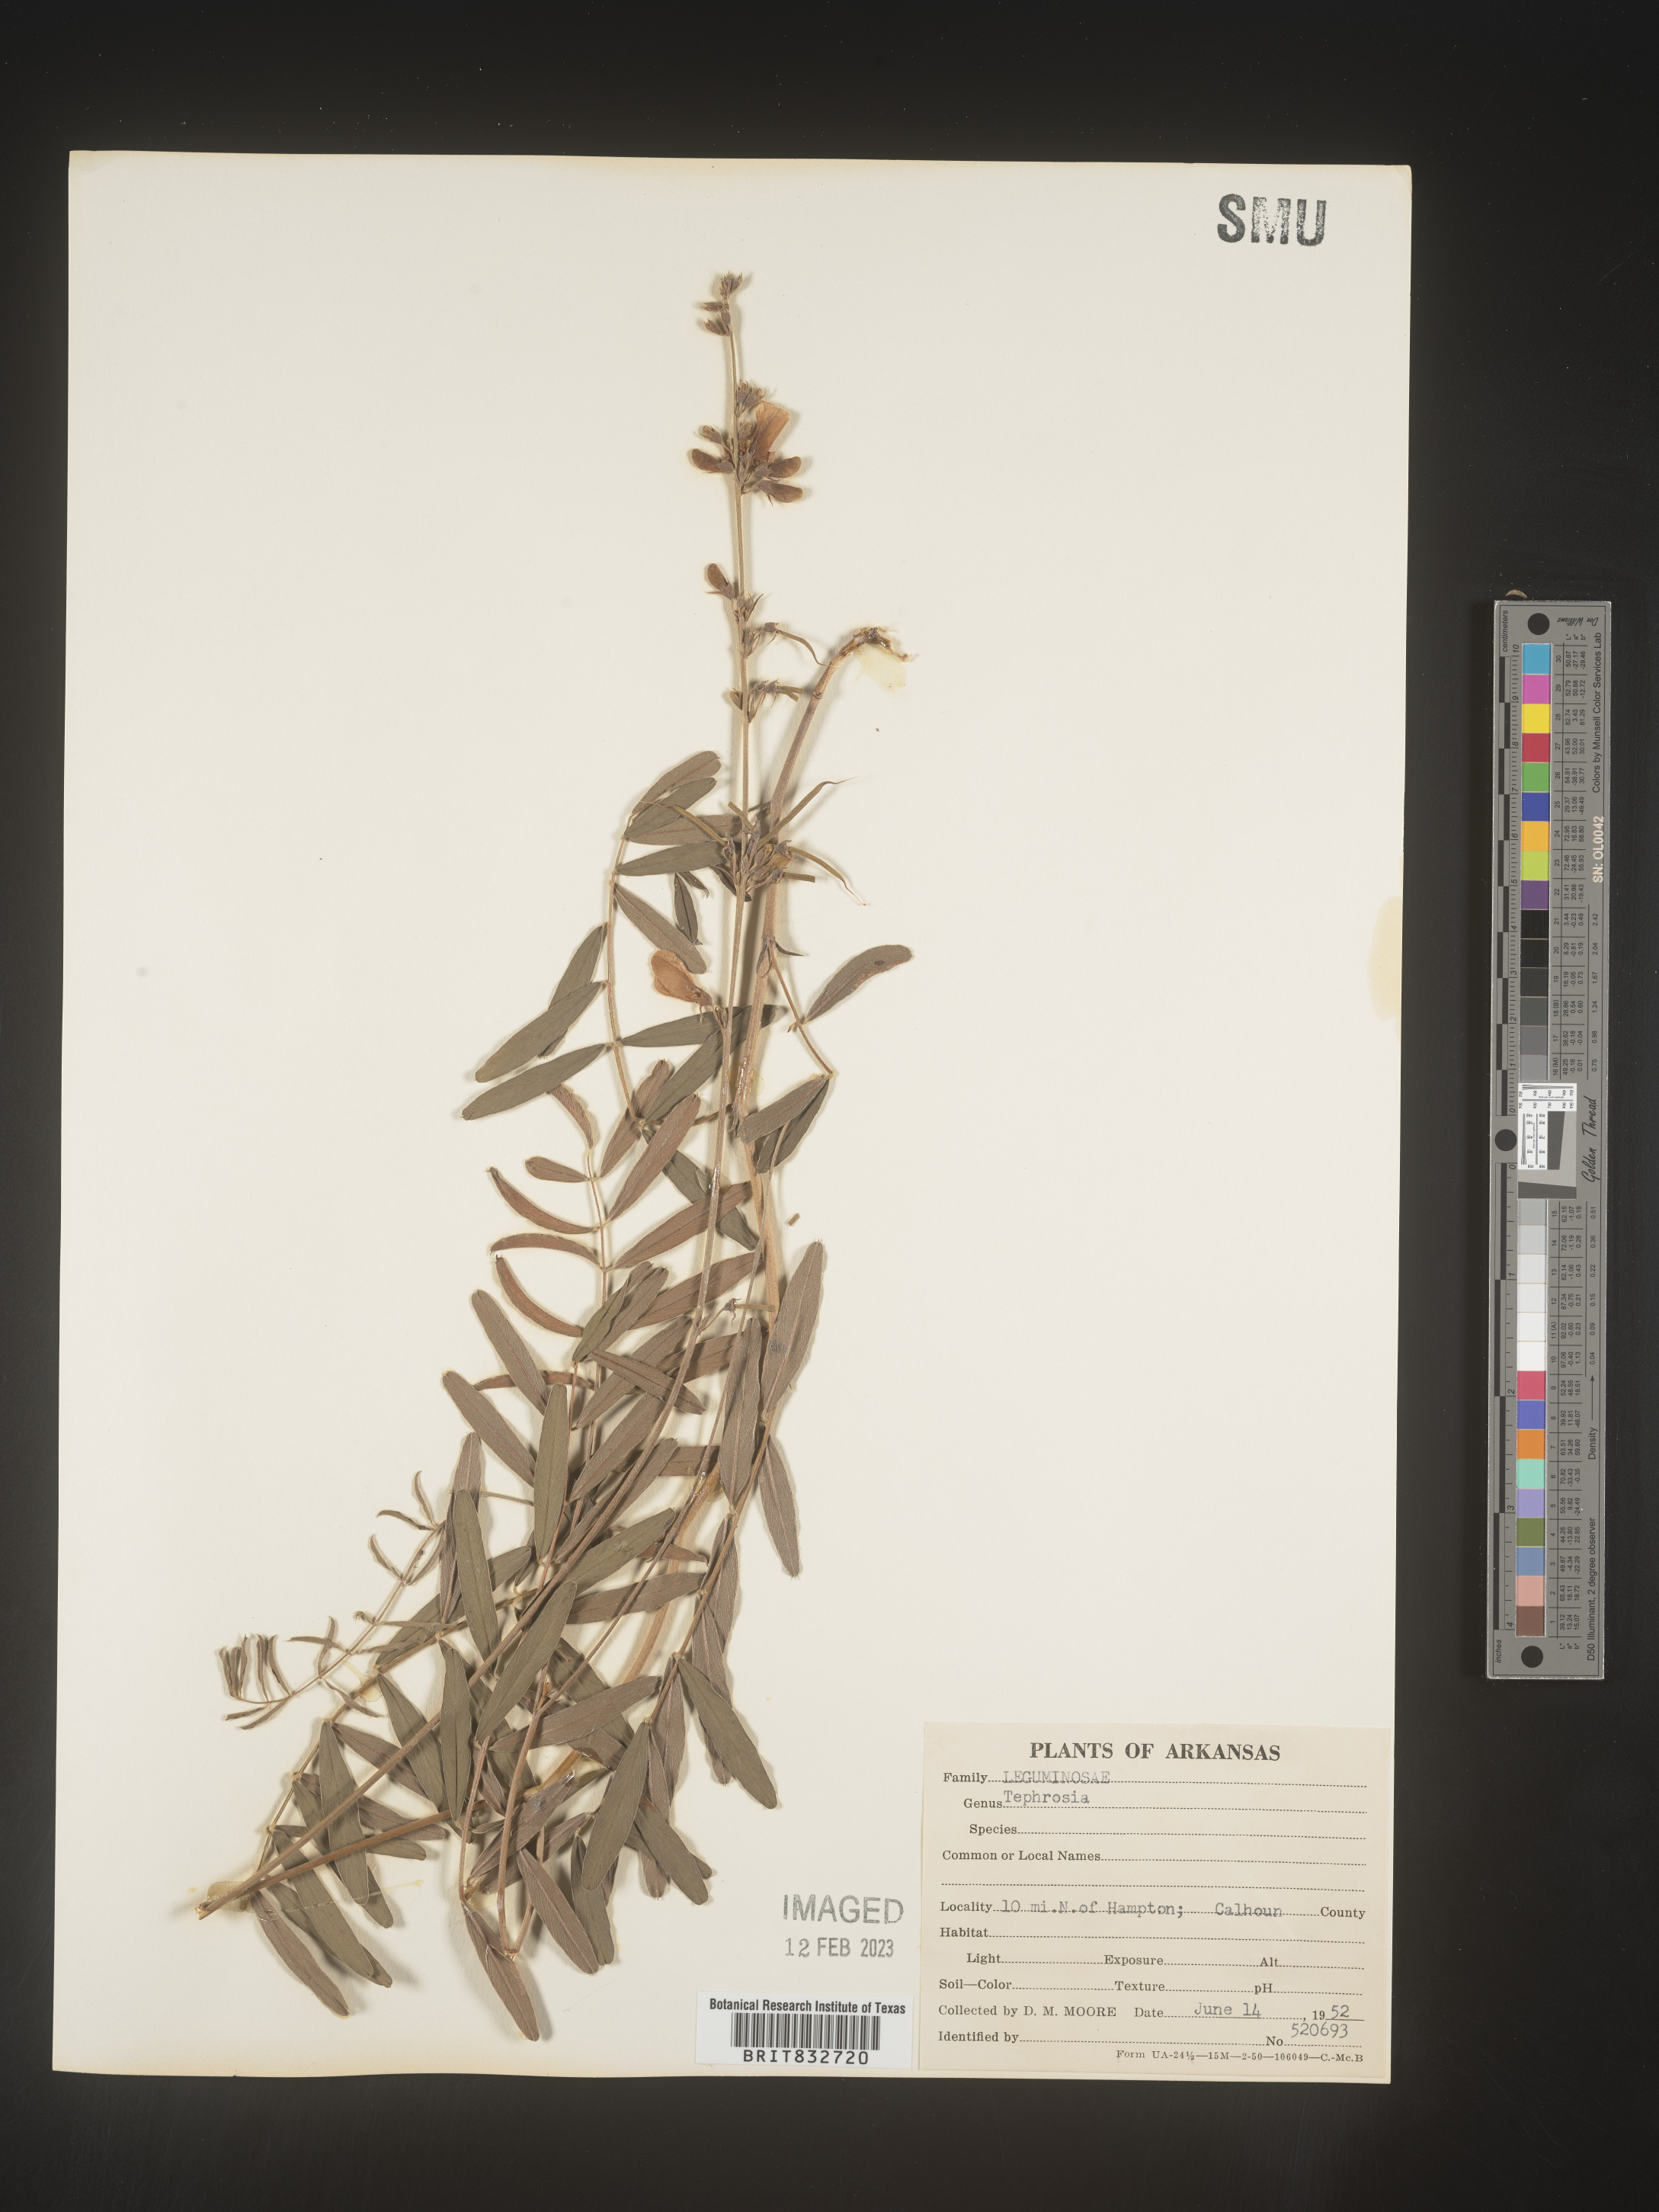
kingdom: Plantae
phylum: Tracheophyta
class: Magnoliopsida
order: Fabales
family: Fabaceae
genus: Tephrosia
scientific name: Tephrosia onobrychoides
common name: Multi-bloom hoary-pea
